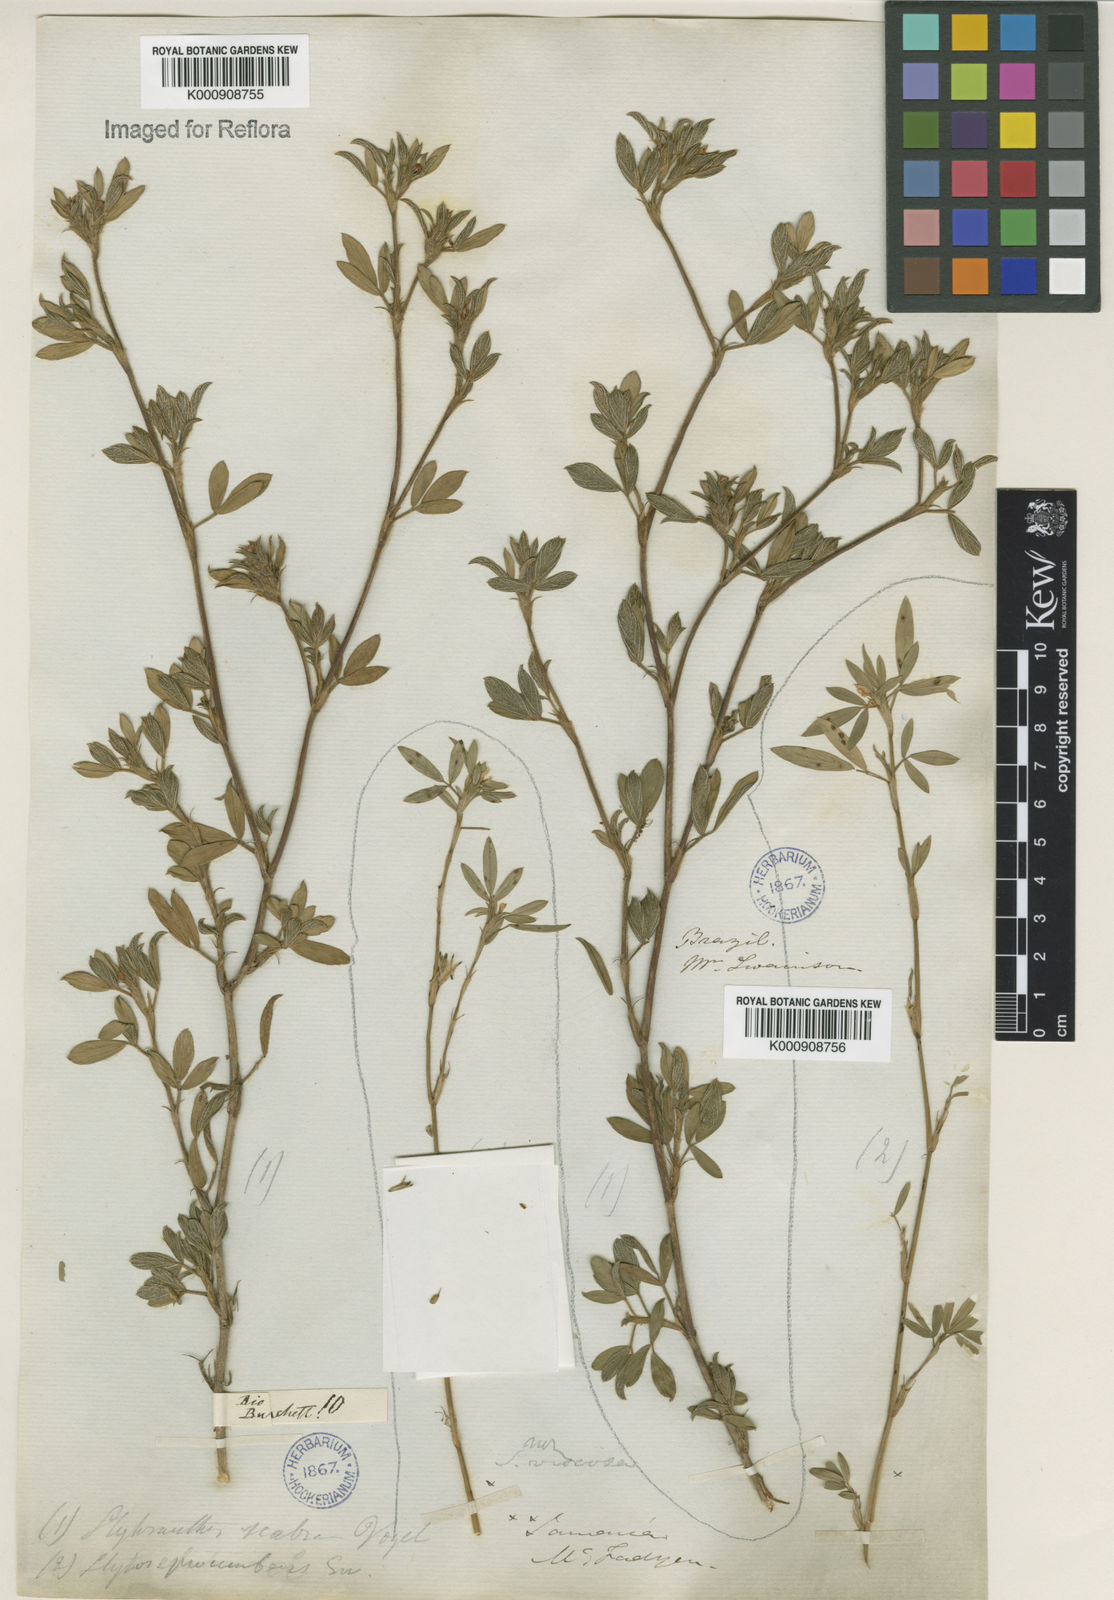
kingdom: Plantae
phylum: Tracheophyta
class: Magnoliopsida
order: Fabales
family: Fabaceae
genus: Stylosanthes
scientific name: Stylosanthes scabra
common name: Pencilflower
